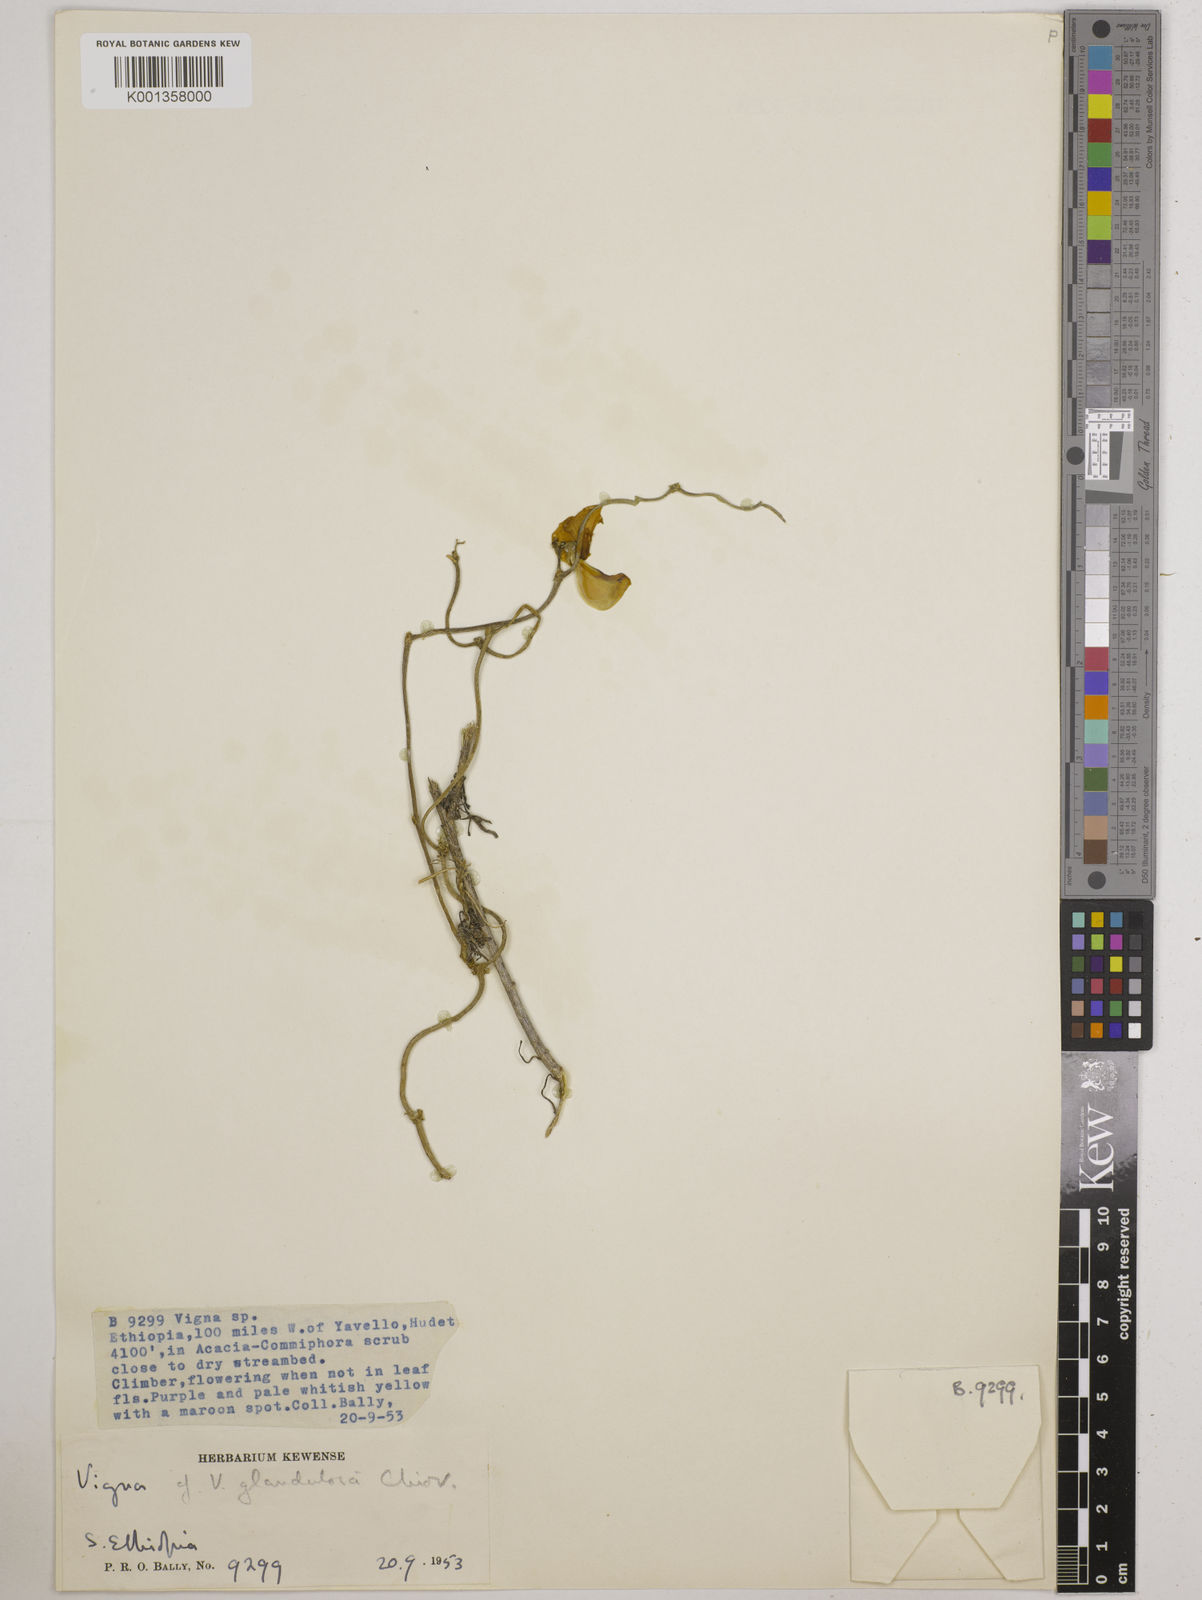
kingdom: Plantae
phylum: Tracheophyta
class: Magnoliopsida
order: Fabales
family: Fabaceae
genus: Vigna
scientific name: Vigna frutescens
